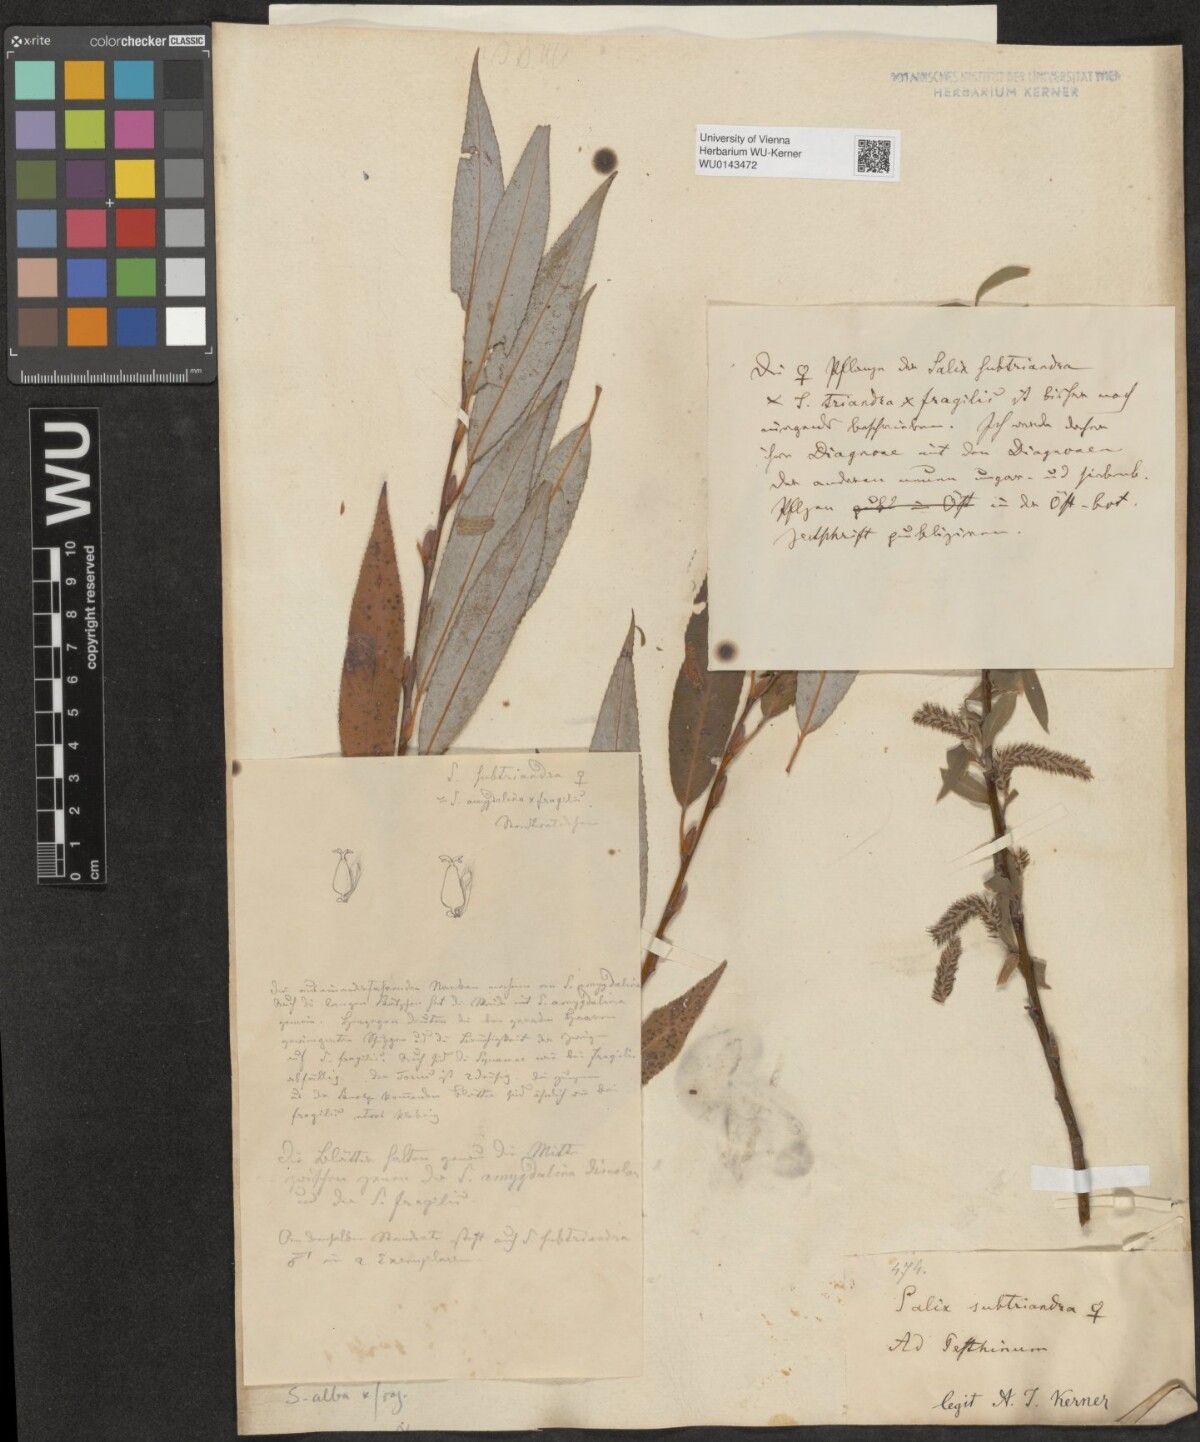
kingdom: Plantae
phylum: Tracheophyta
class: Magnoliopsida
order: Malpighiales
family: Salicaceae
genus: Salix
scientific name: Salix subtriandra
